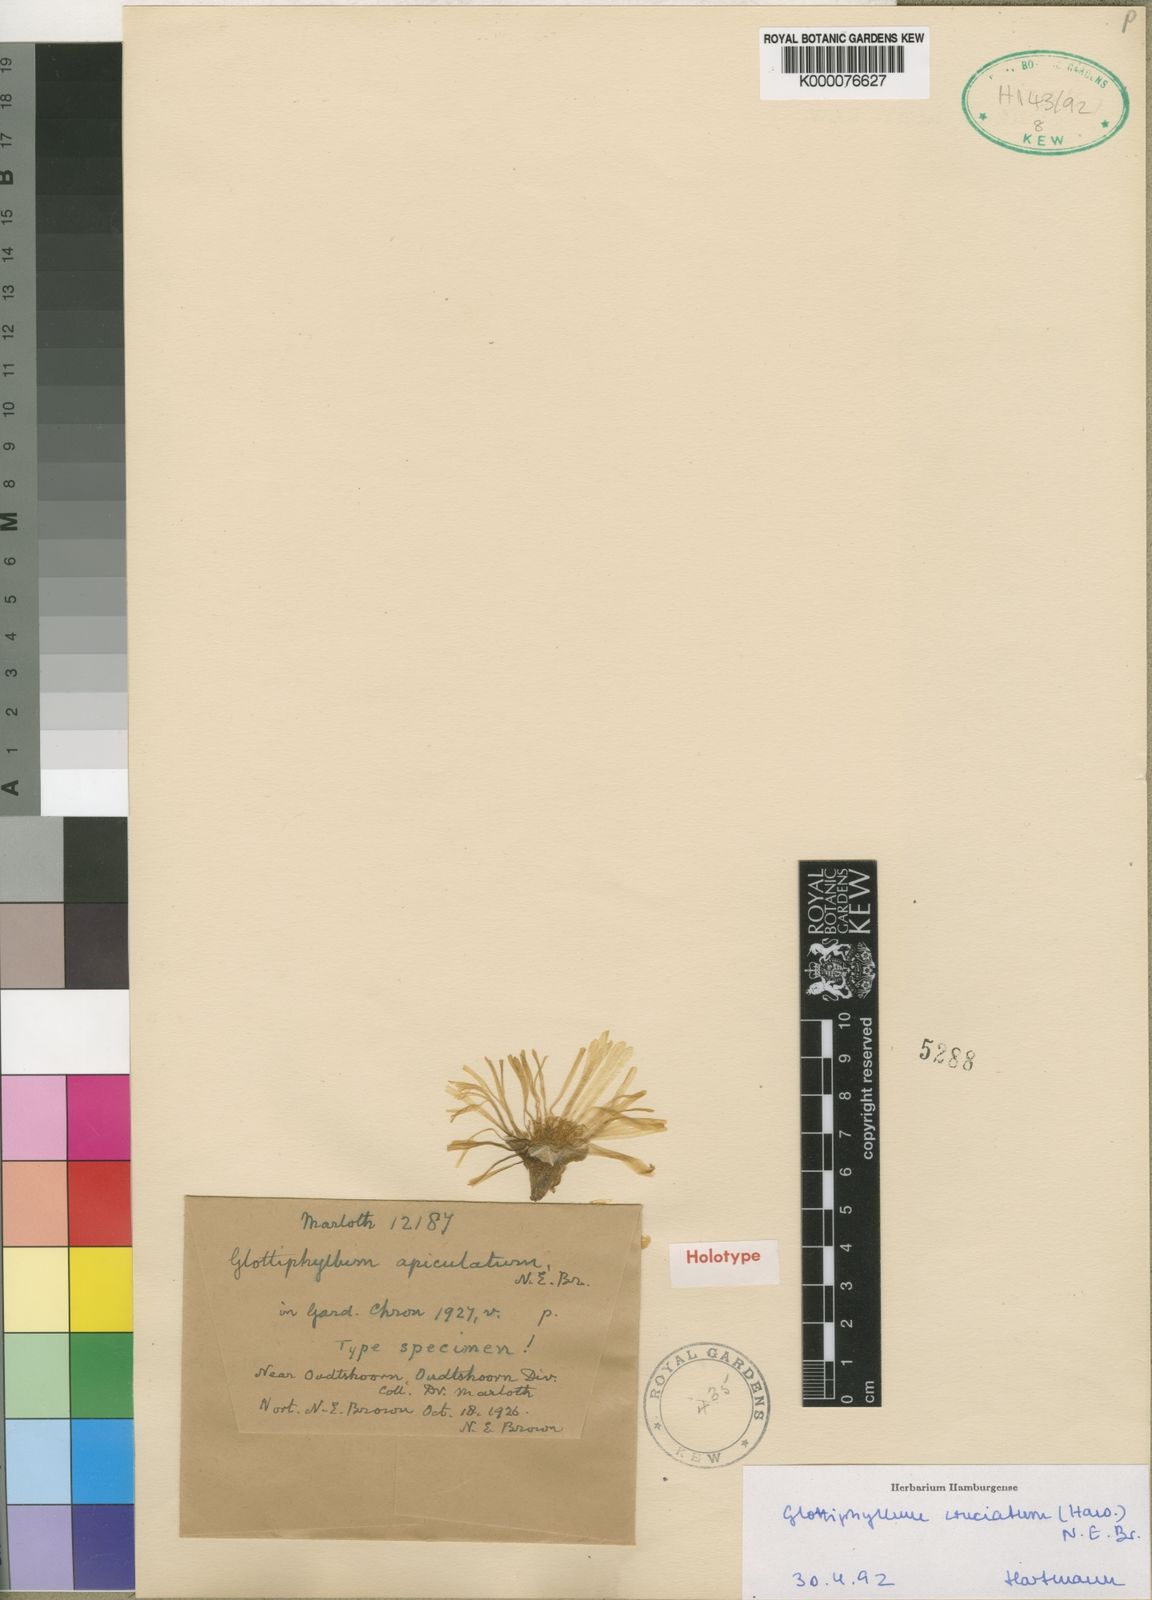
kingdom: Plantae
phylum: Tracheophyta
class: Magnoliopsida
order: Caryophyllales
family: Aizoaceae
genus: Glottiphyllum
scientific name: Glottiphyllum cruciatum
